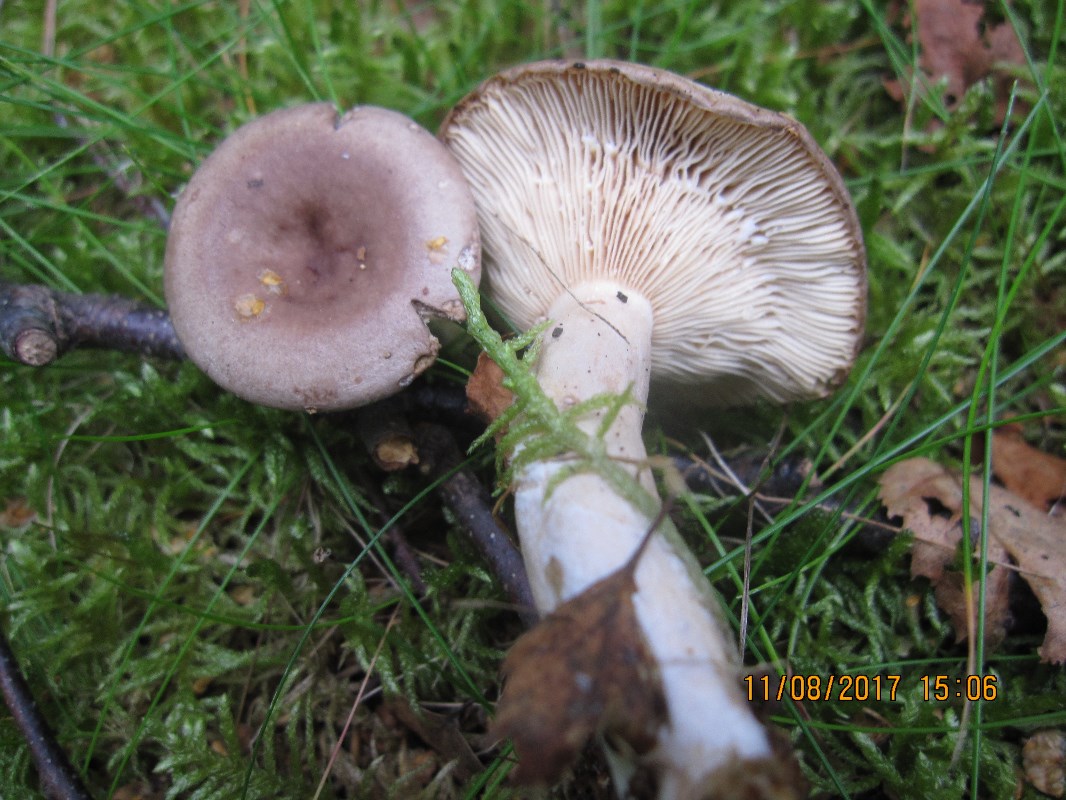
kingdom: Fungi
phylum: Basidiomycota
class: Agaricomycetes
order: Russulales
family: Russulaceae
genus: Lactarius
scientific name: Lactarius vietus
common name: violetgrå mælkehat
